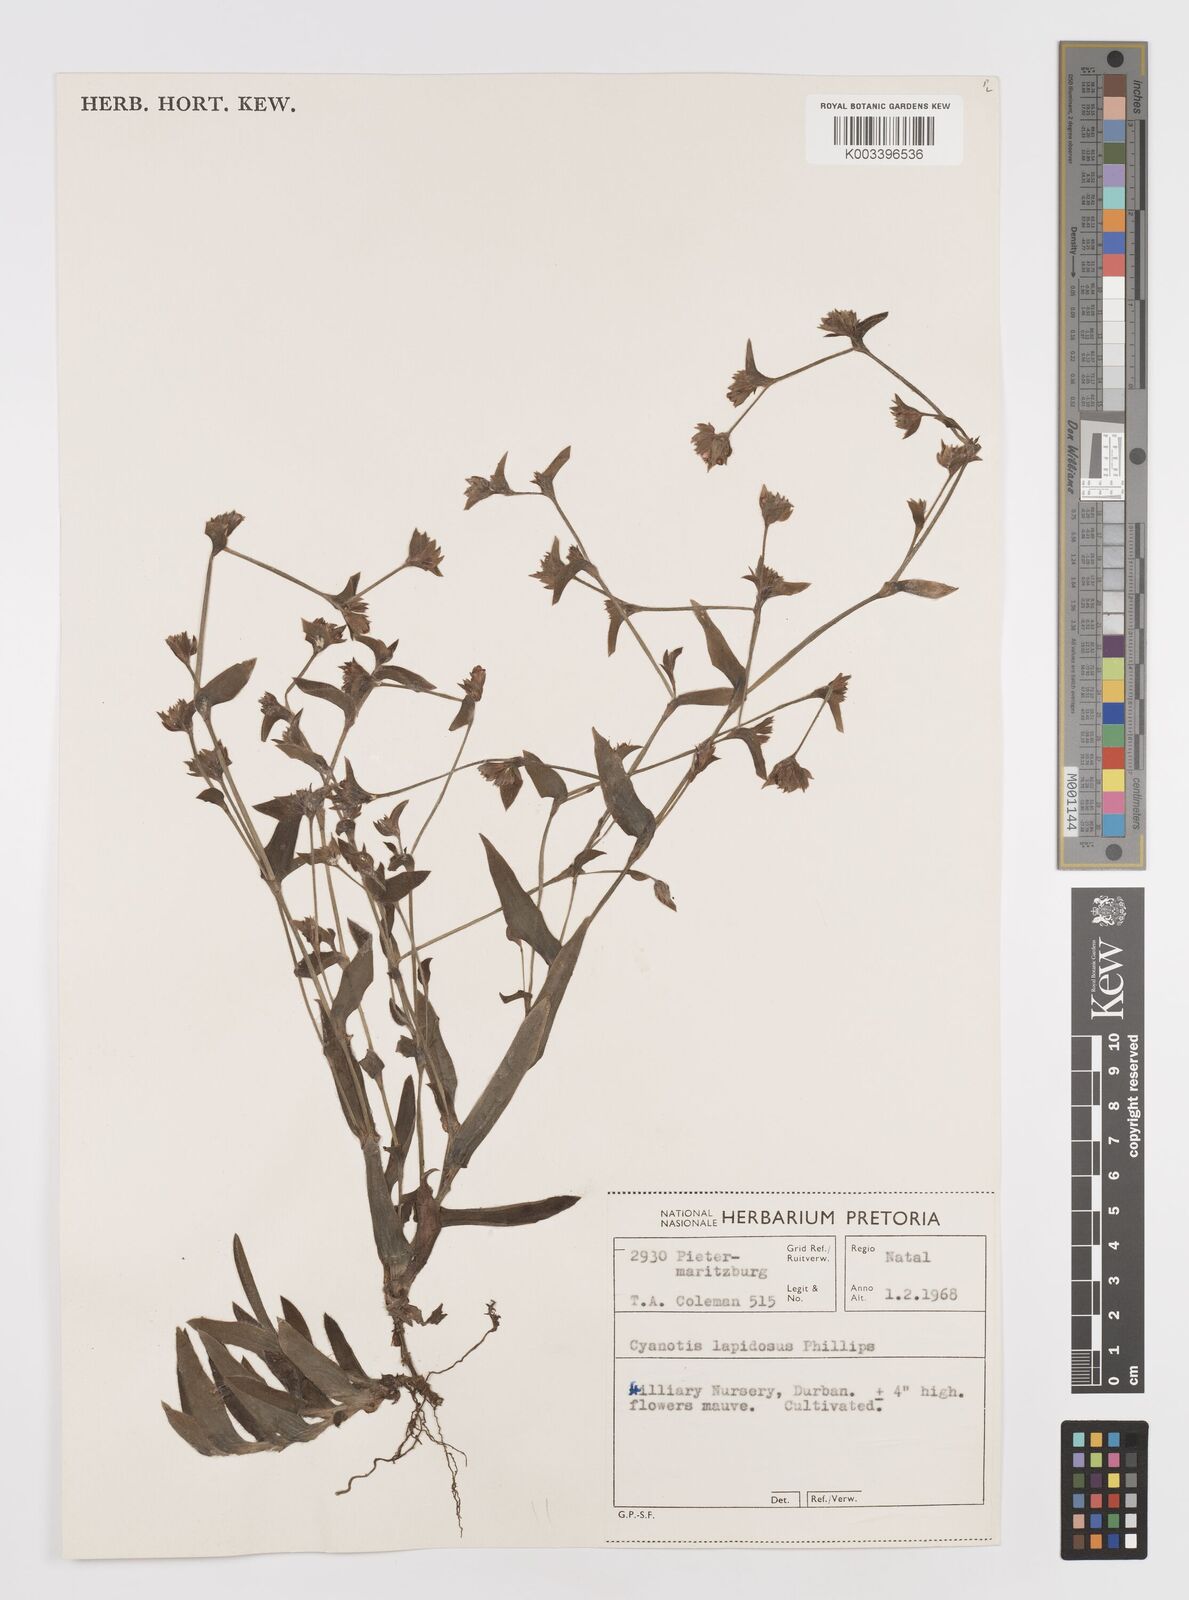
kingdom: Plantae
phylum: Tracheophyta
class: Liliopsida
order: Commelinales
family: Commelinaceae
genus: Cyanotis
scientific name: Cyanotis lapidosa
